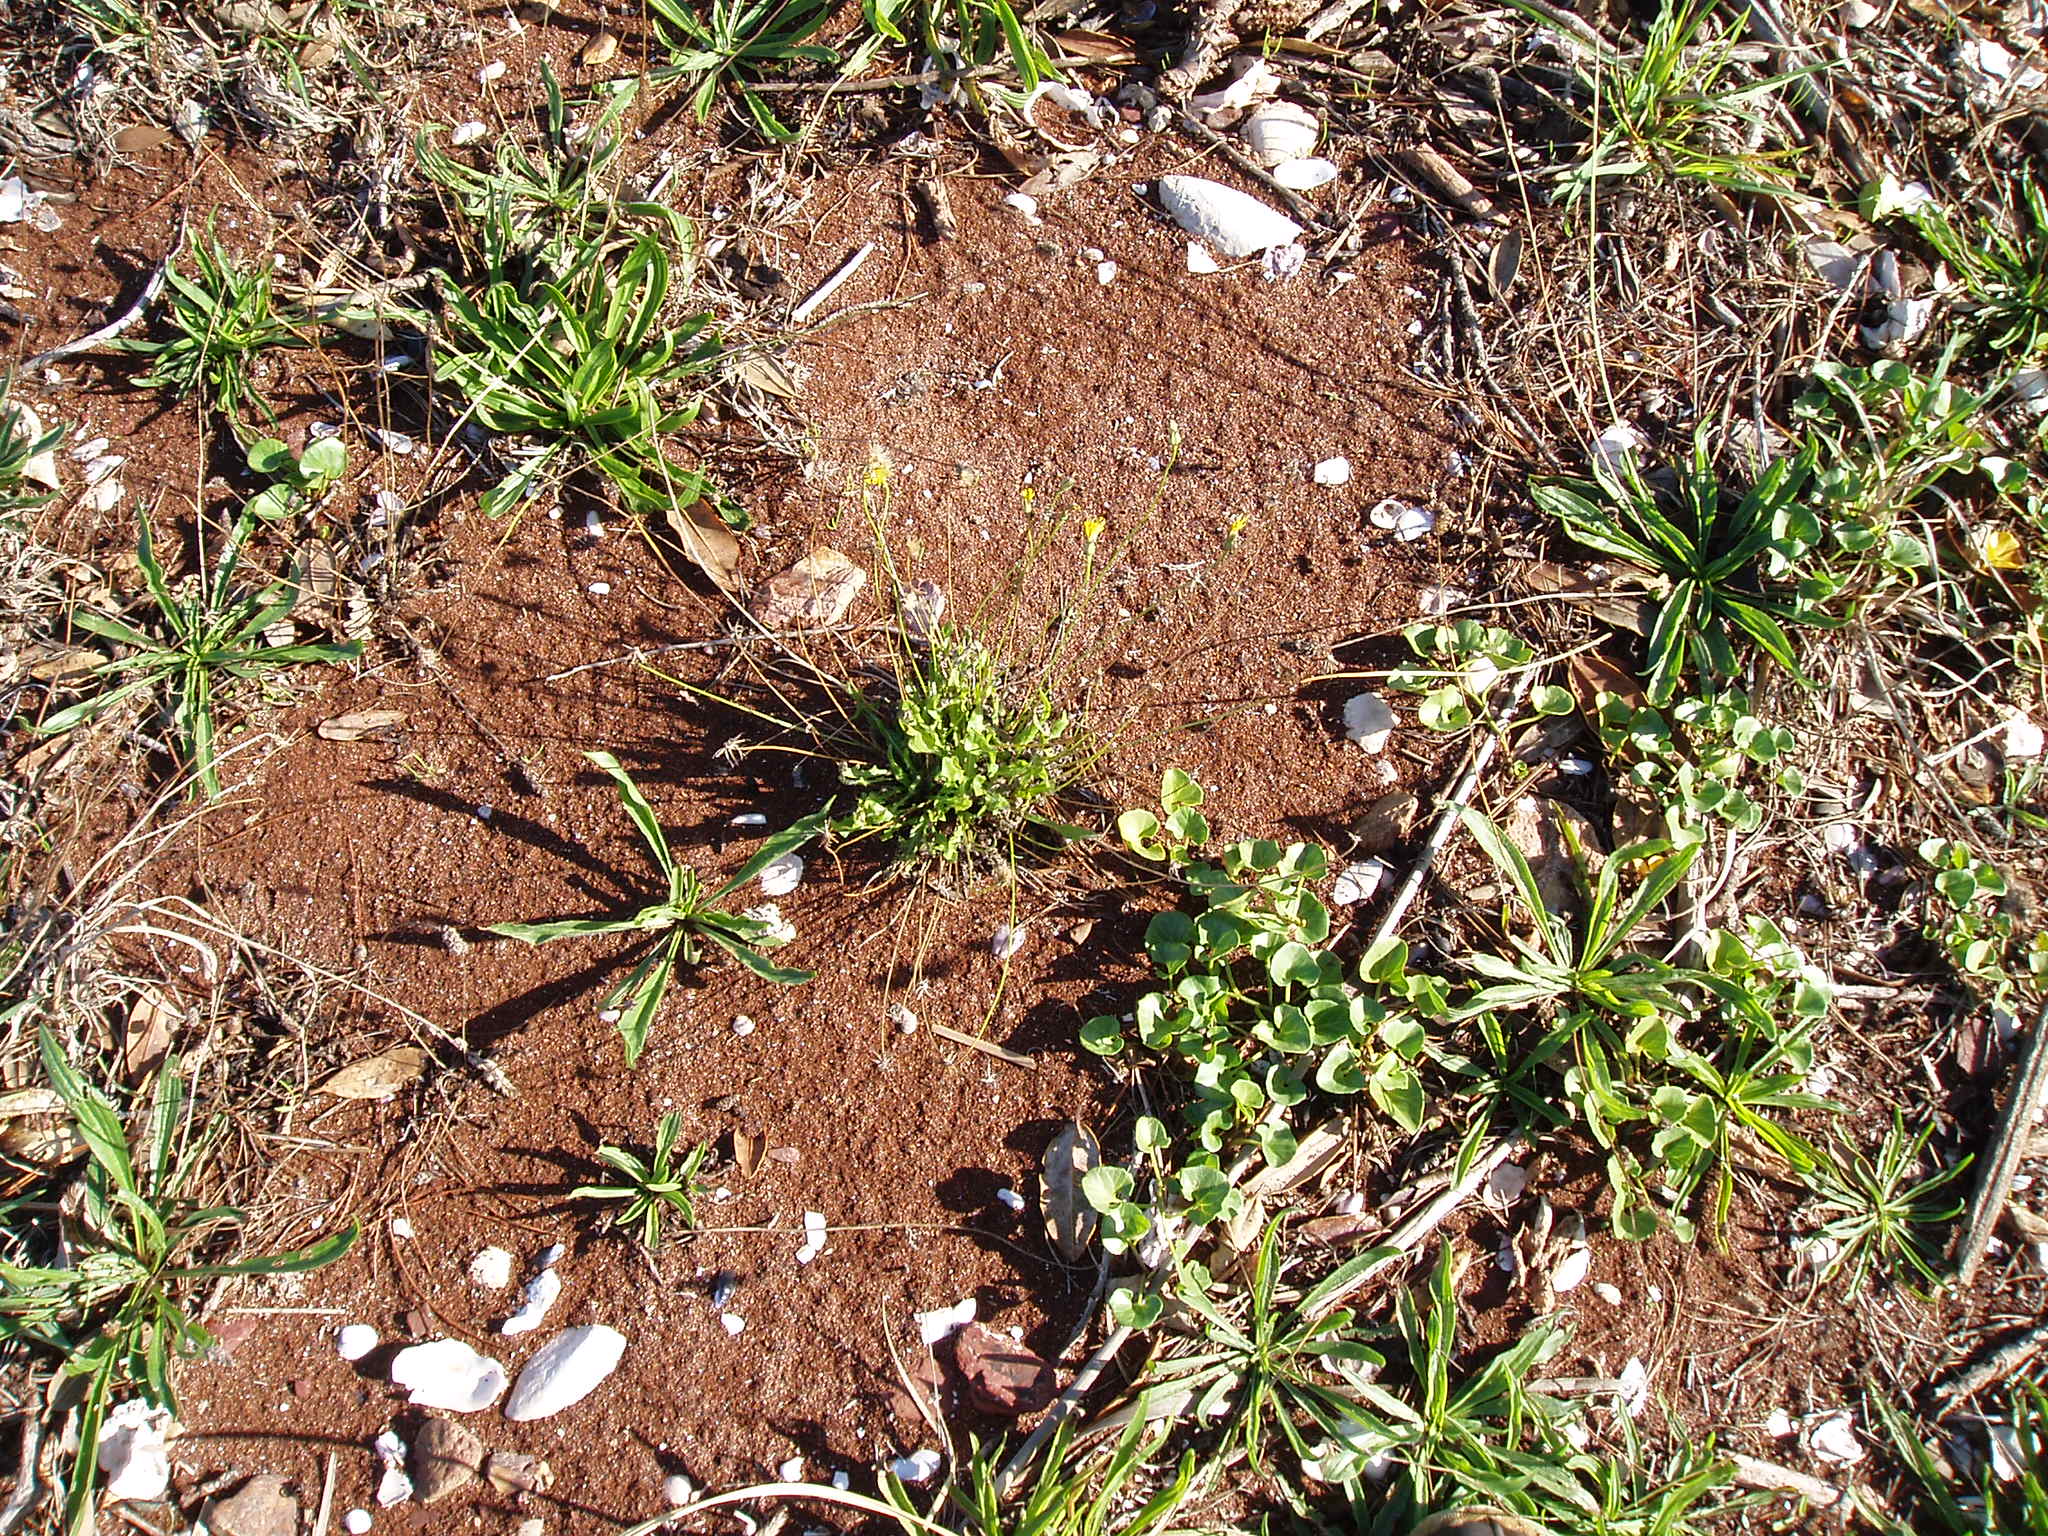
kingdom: Plantae
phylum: Tracheophyta
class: Magnoliopsida
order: Asterales
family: Asteraceae
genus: Thrincia
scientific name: Thrincia saxatilis
